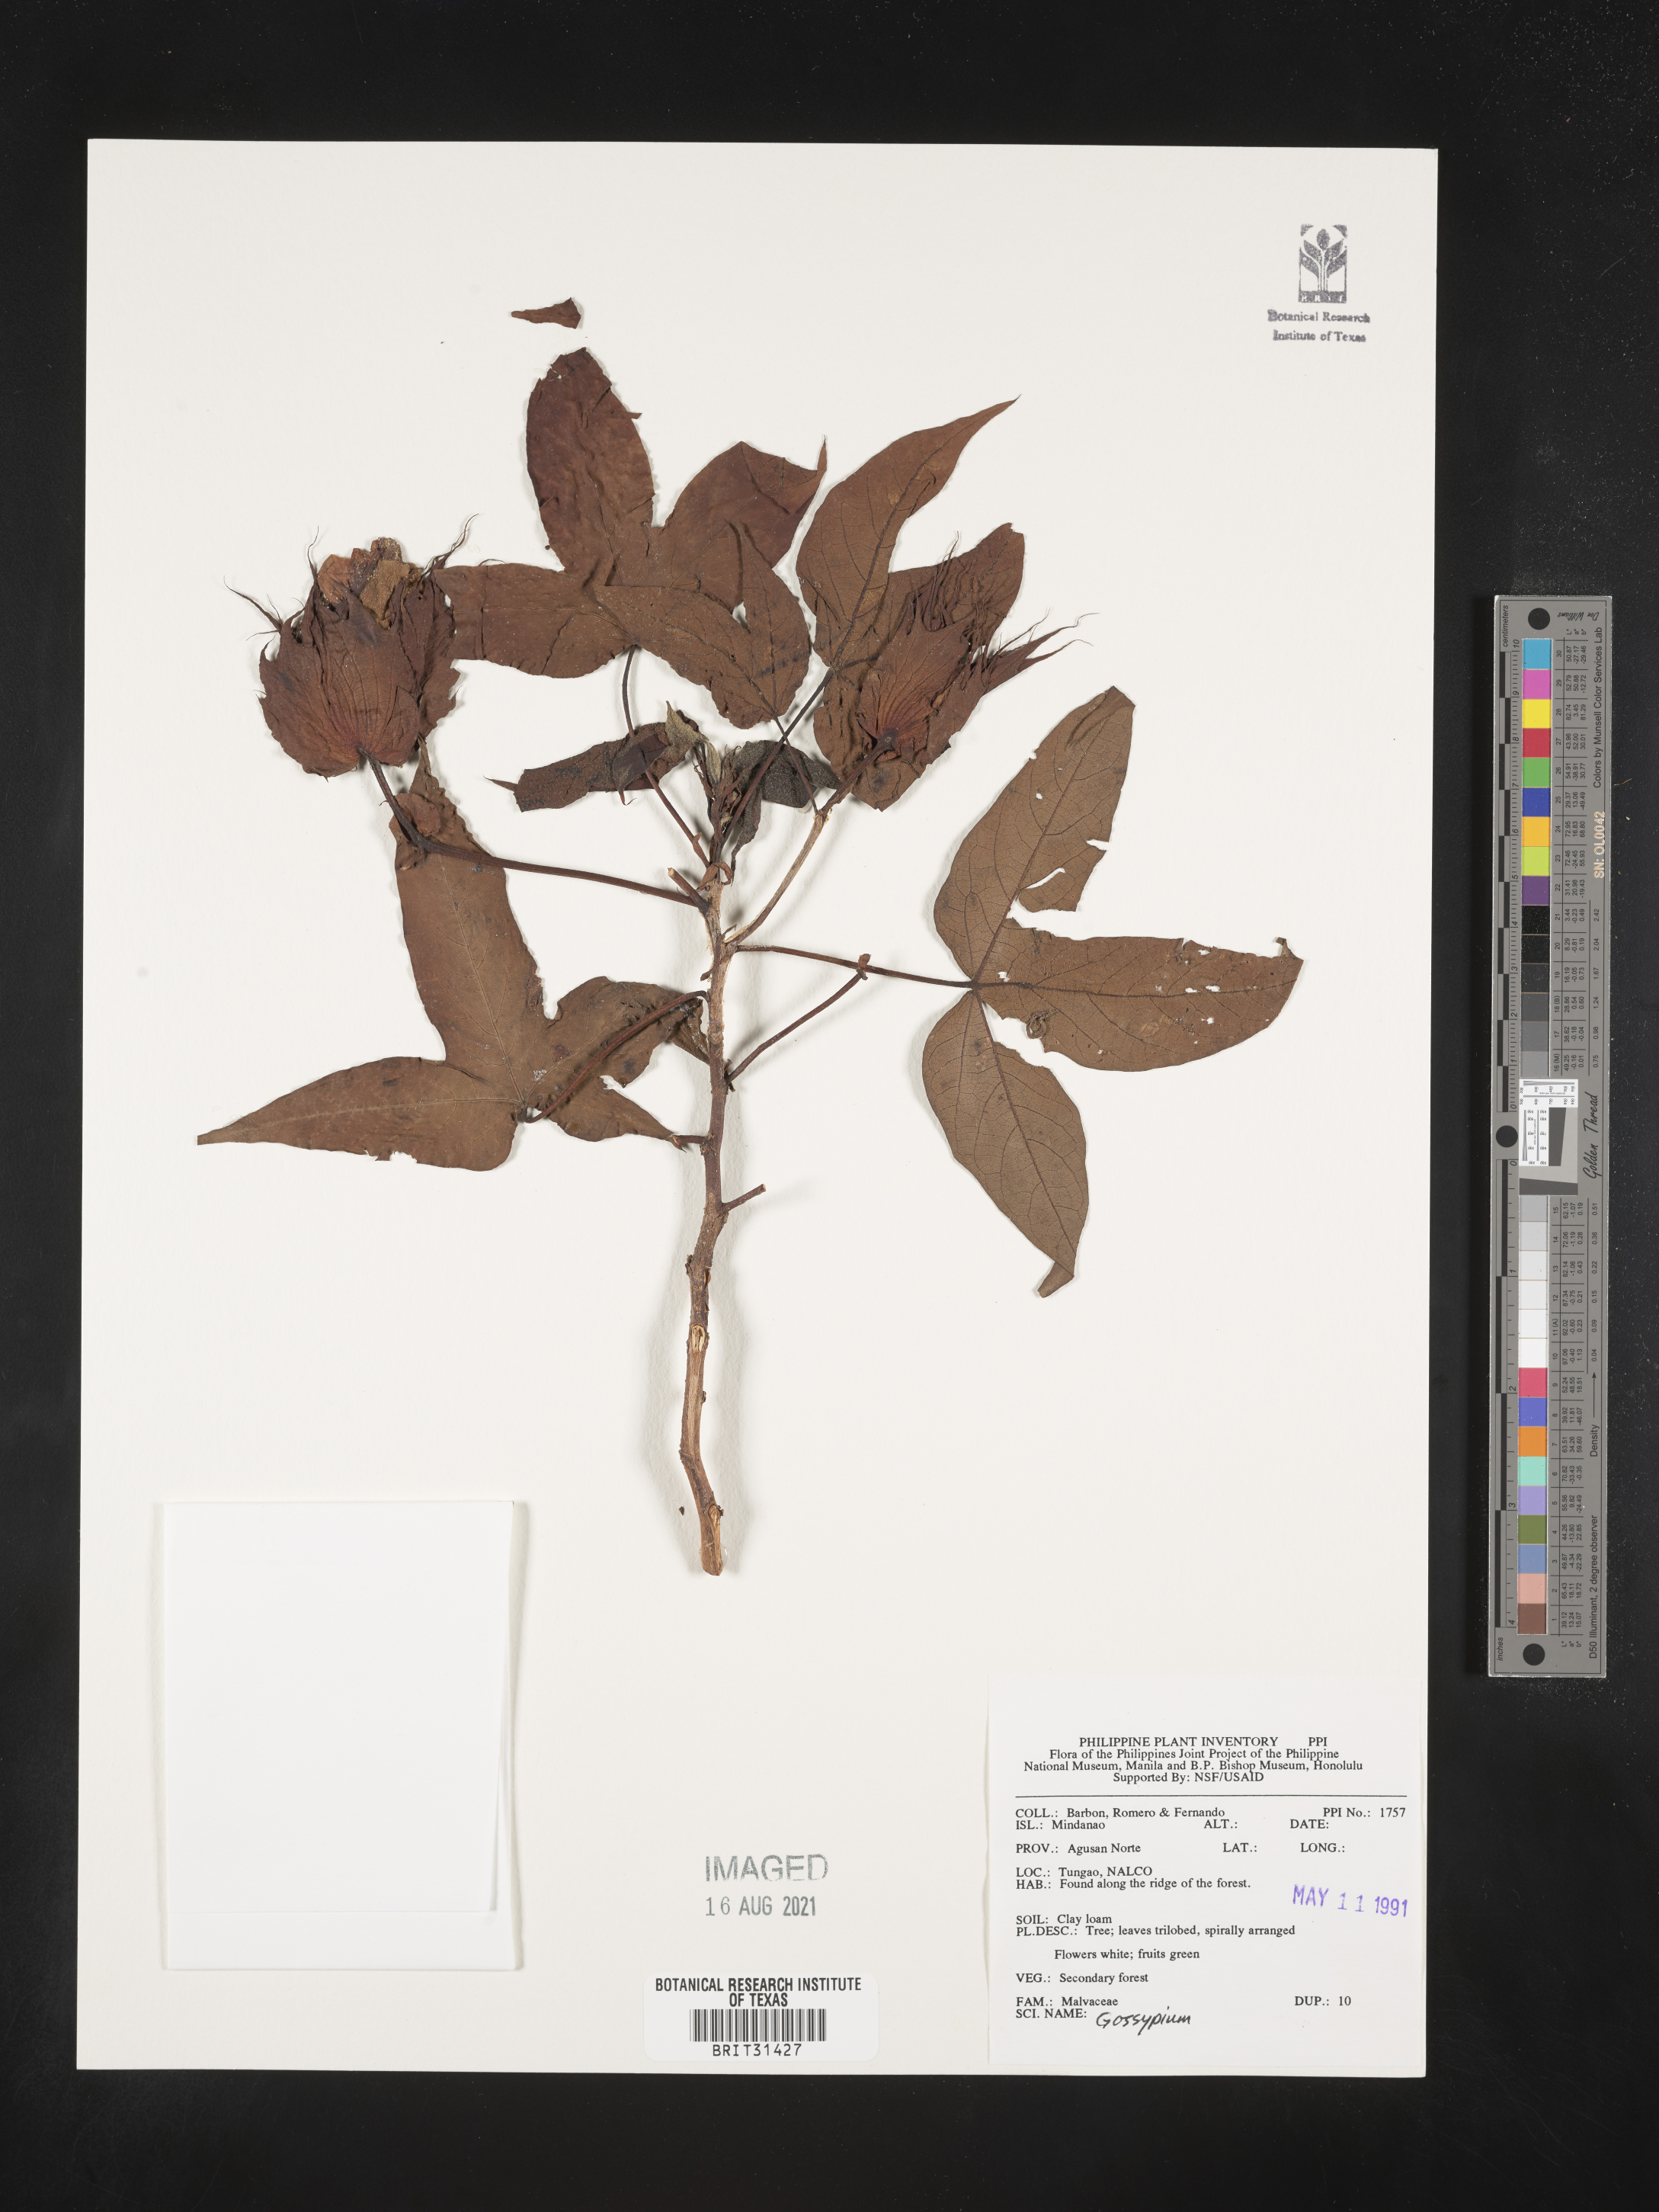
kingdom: Plantae
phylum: Tracheophyta
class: Magnoliopsida
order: Malvales
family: Malvaceae
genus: Gossypium
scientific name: Gossypium
